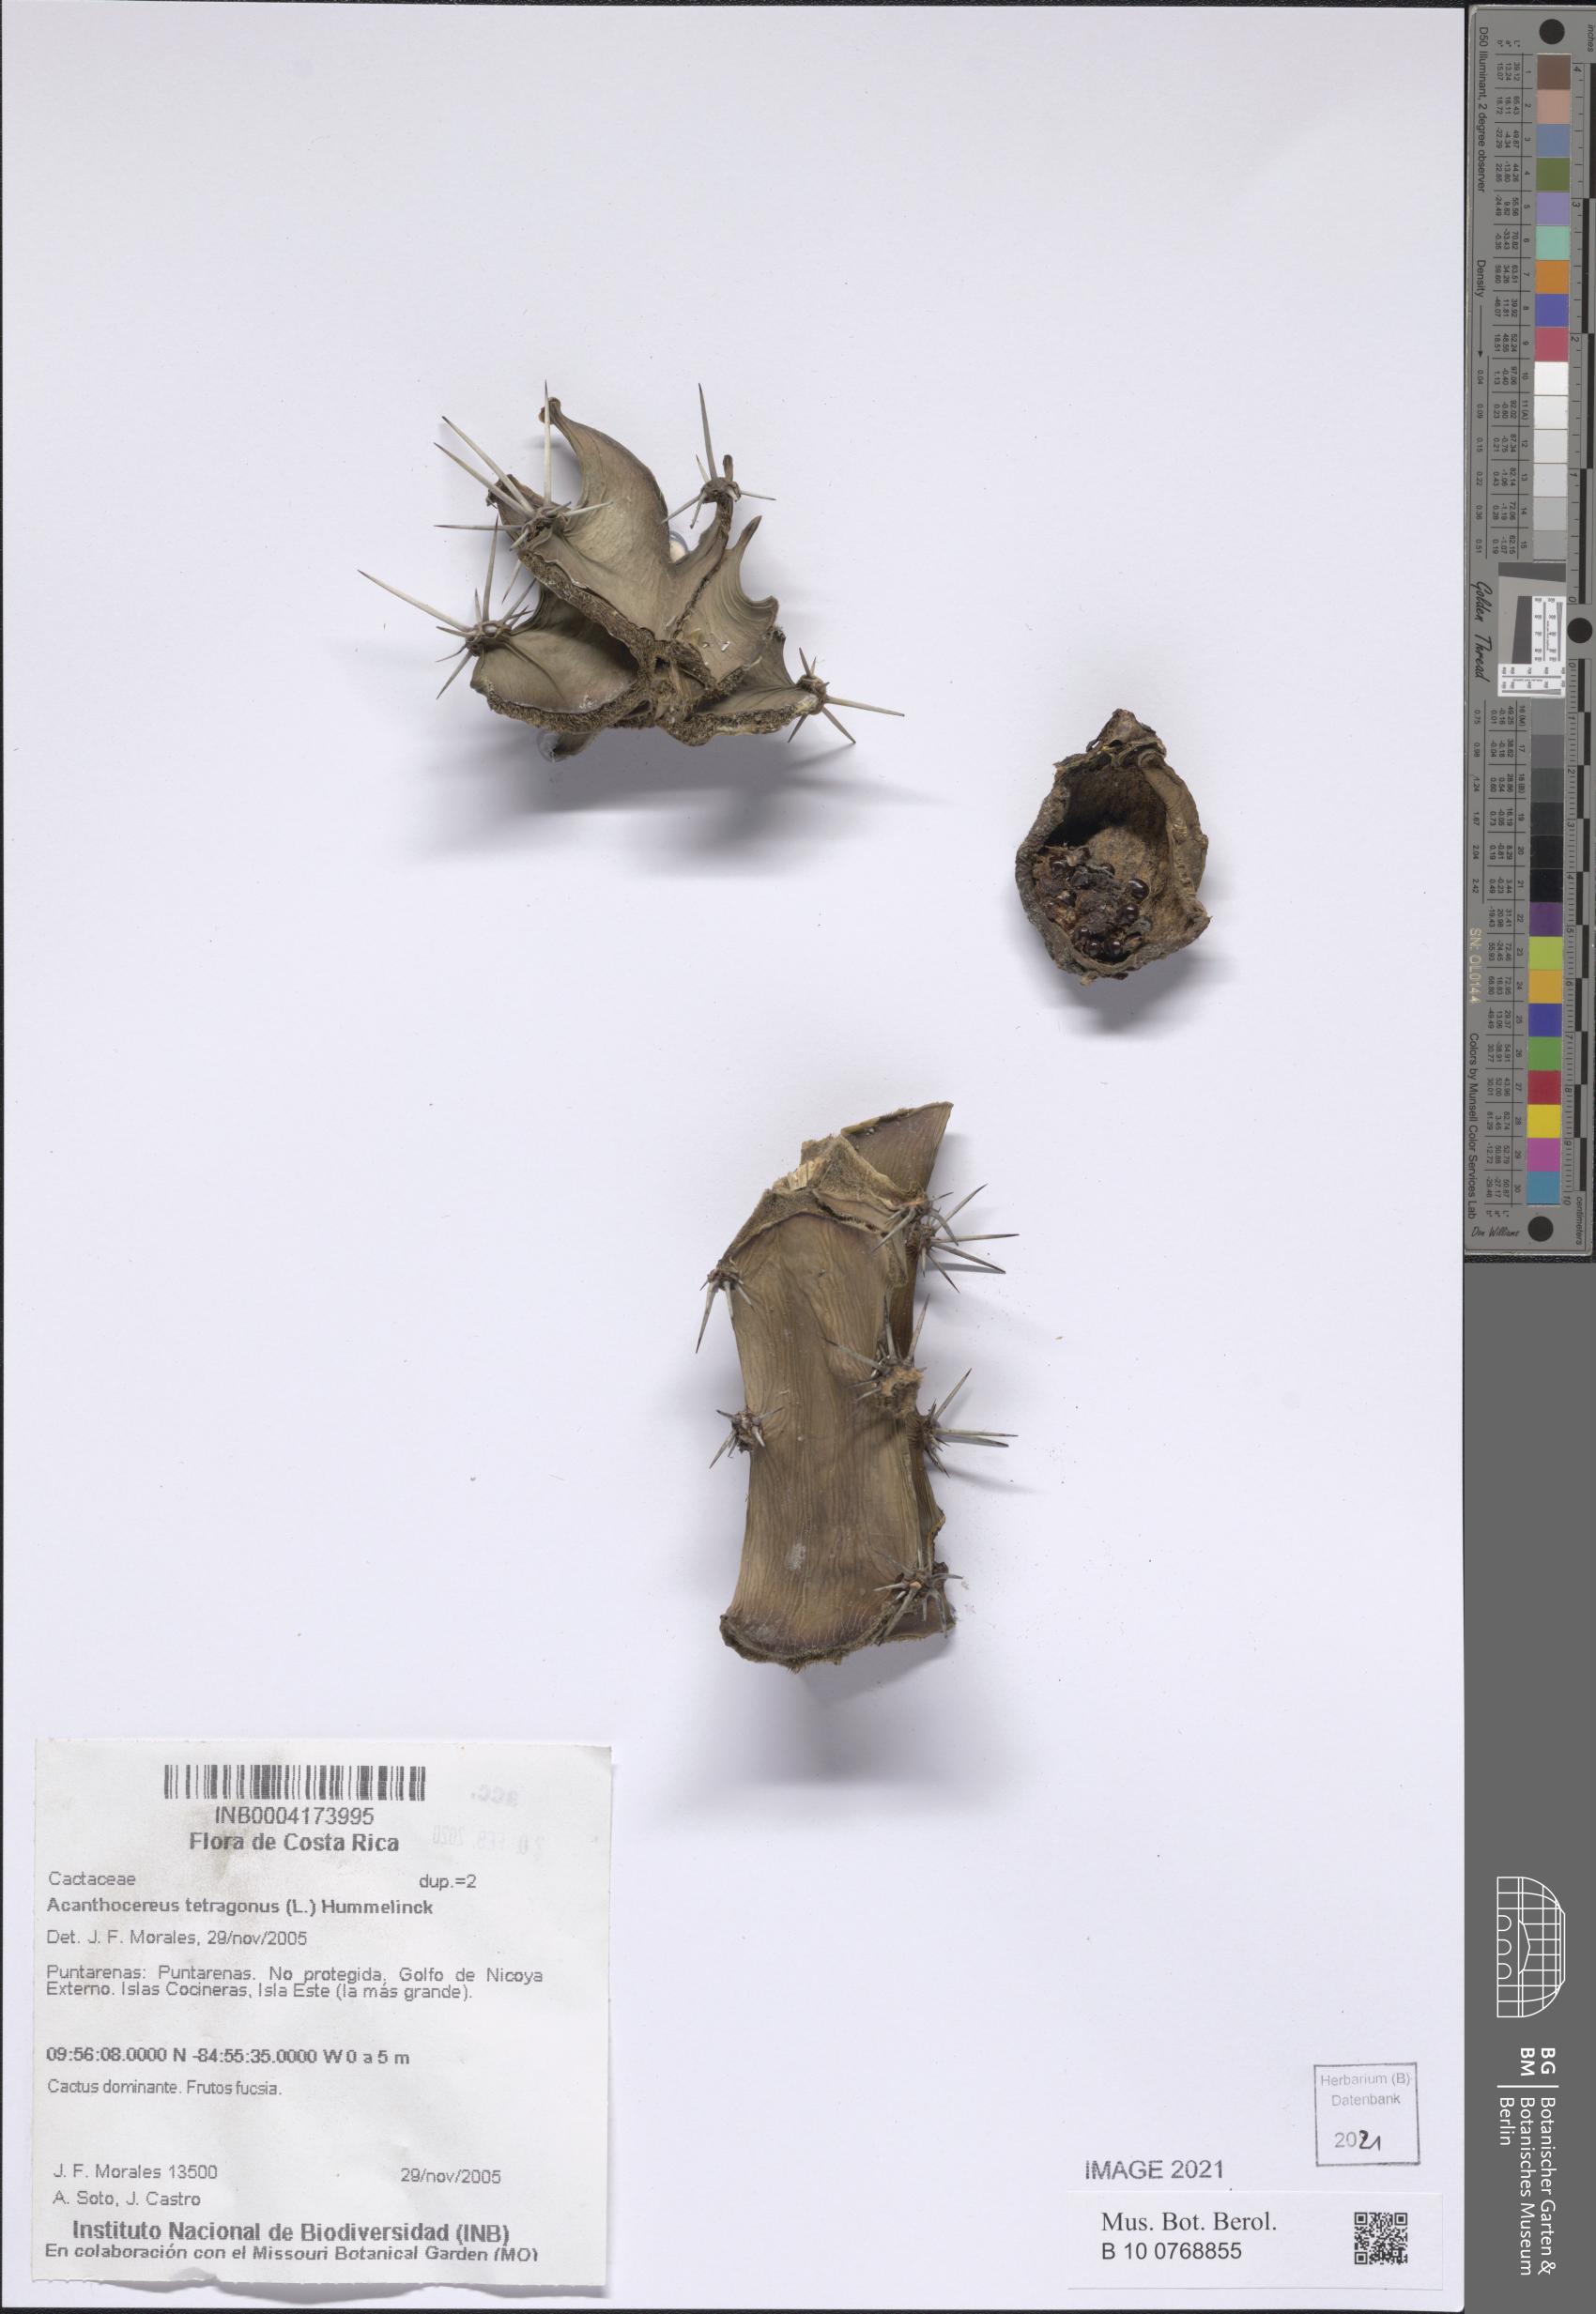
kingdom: Plantae
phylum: Tracheophyta
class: Magnoliopsida
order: Caryophyllales
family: Cactaceae
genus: Acanthocereus
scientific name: Acanthocereus tetragonus
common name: Triangle cactus
